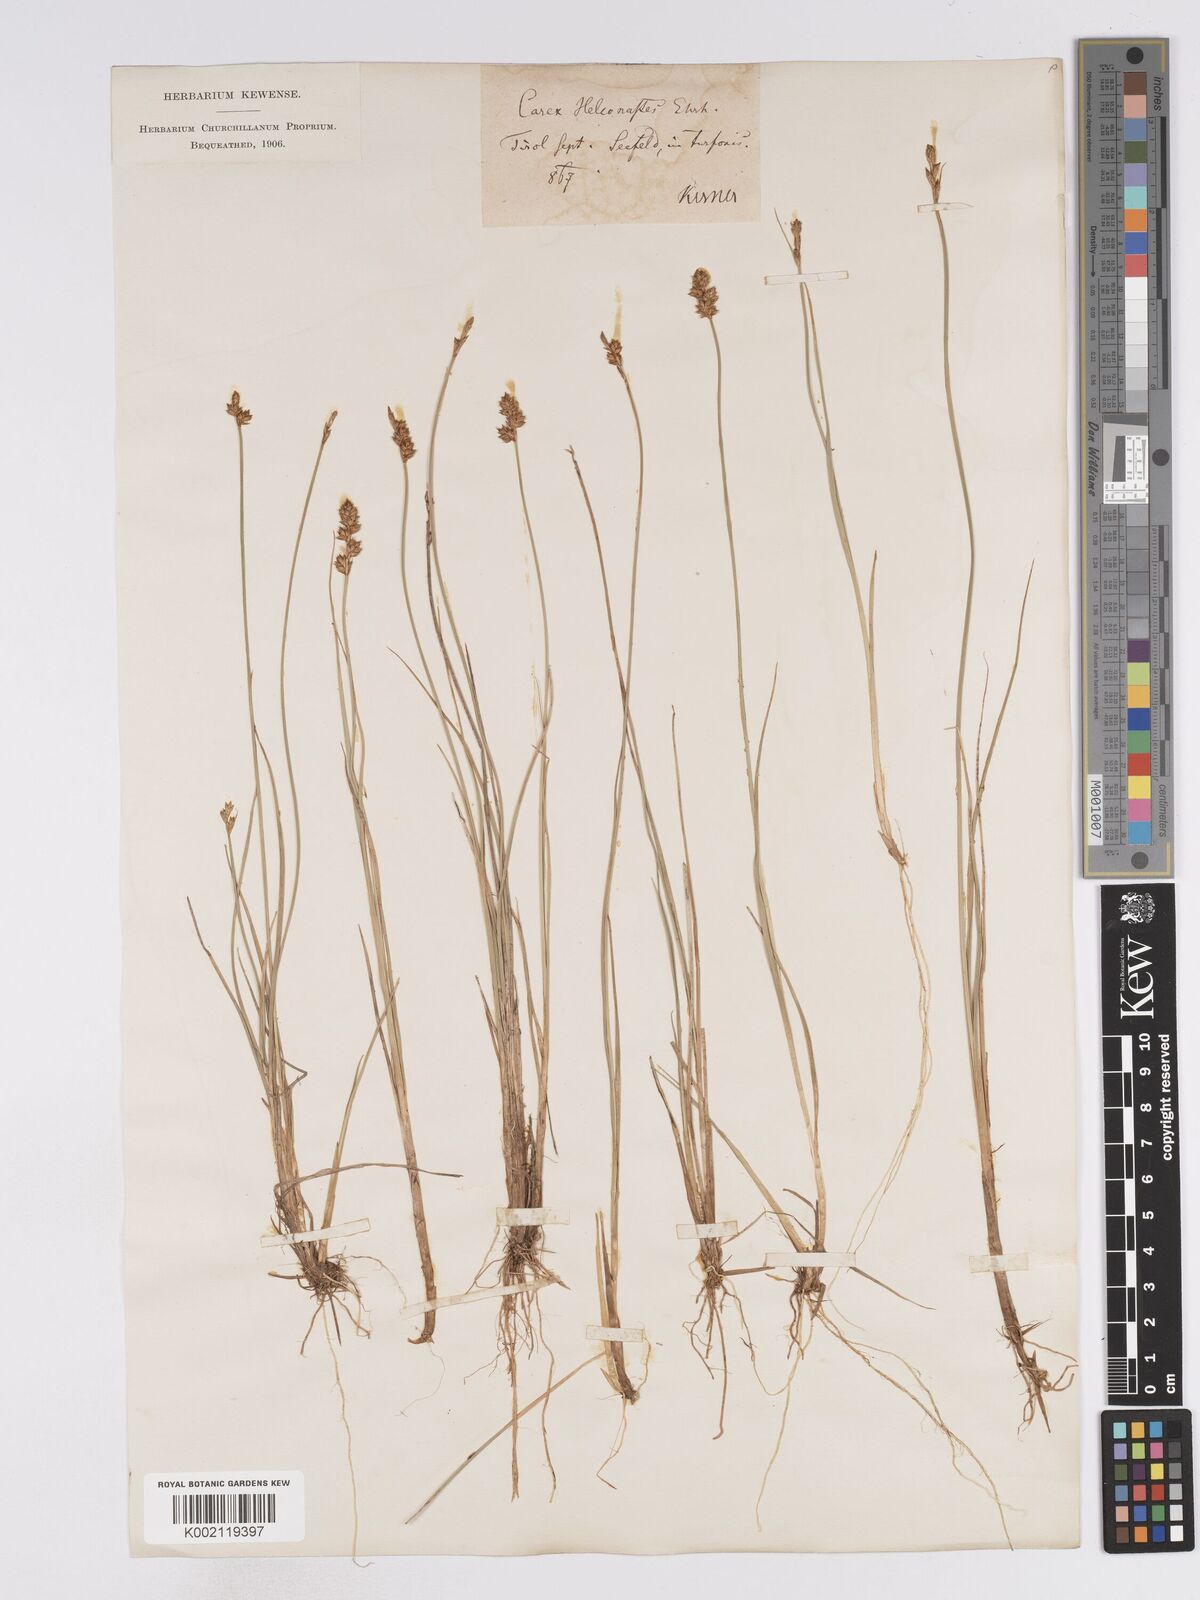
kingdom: Plantae
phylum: Tracheophyta
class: Liliopsida
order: Poales
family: Cyperaceae
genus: Carex
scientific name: Carex heleonastes
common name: Hudson bay sedge
